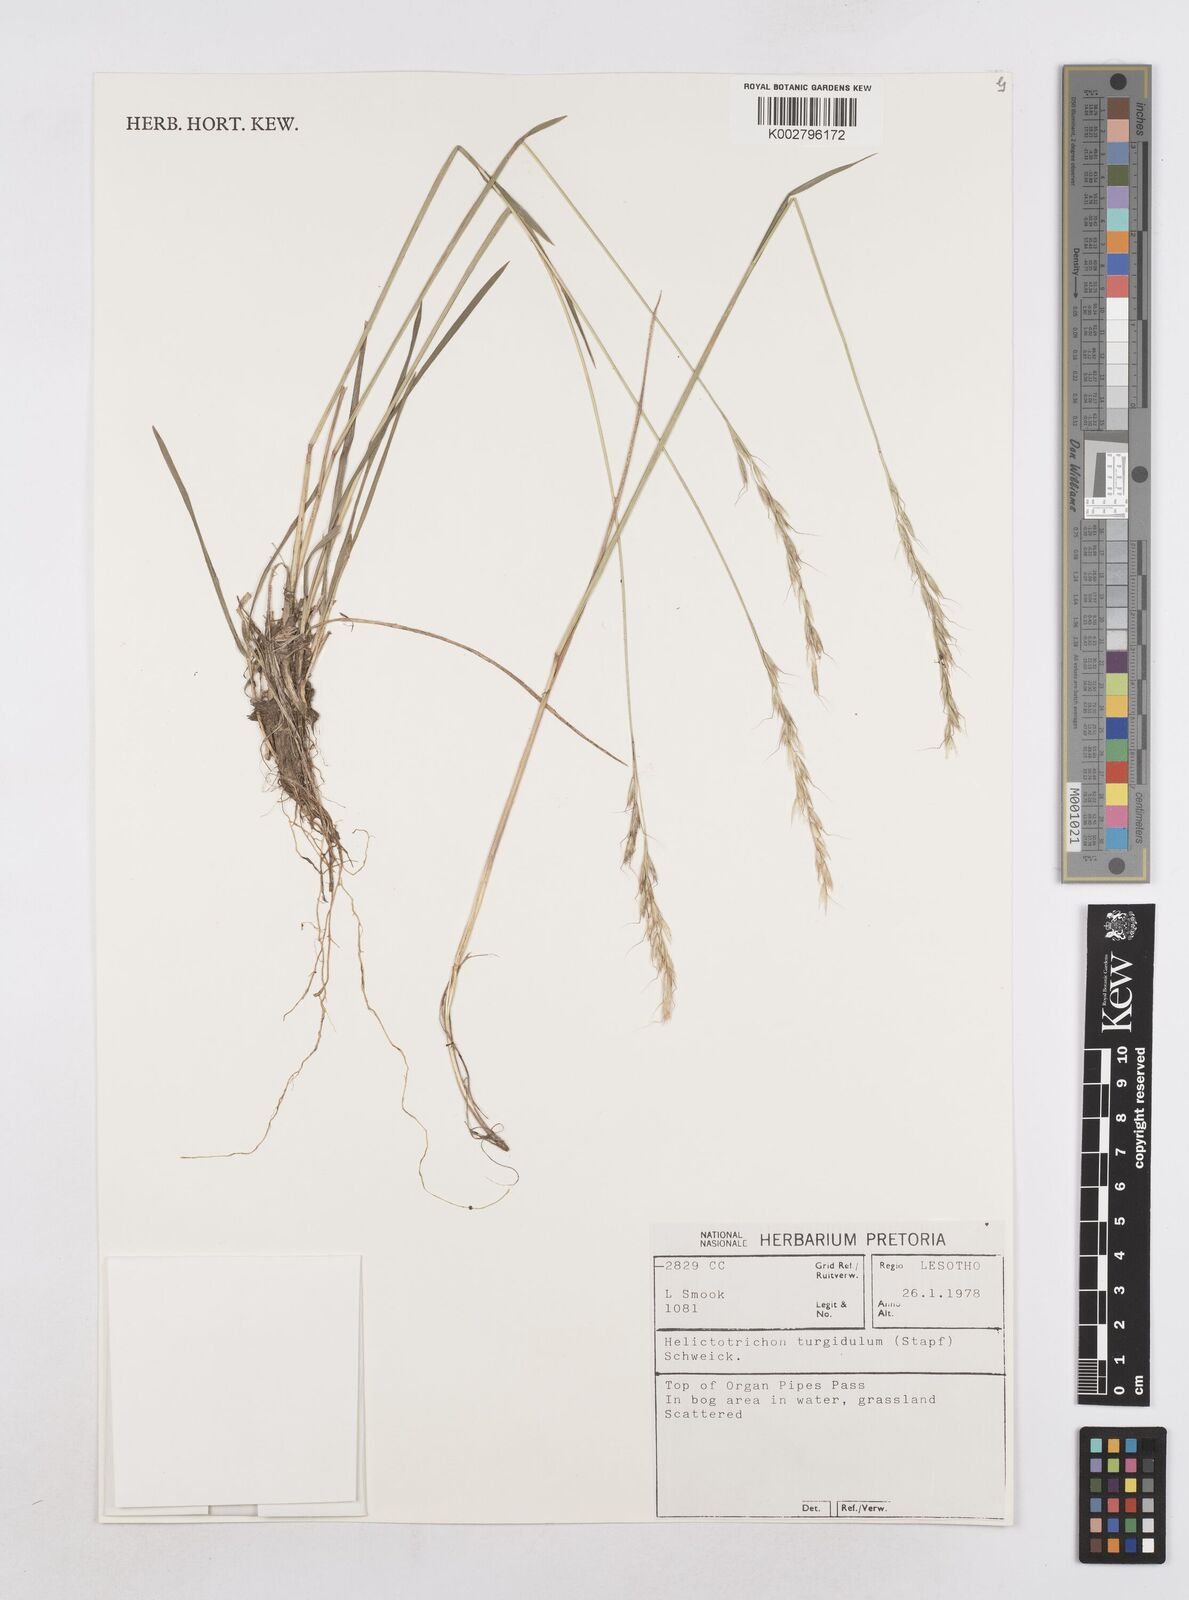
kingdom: Plantae
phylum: Tracheophyta
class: Liliopsida
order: Poales
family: Poaceae
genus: Trisetopsis
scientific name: Trisetopsis imberbis
